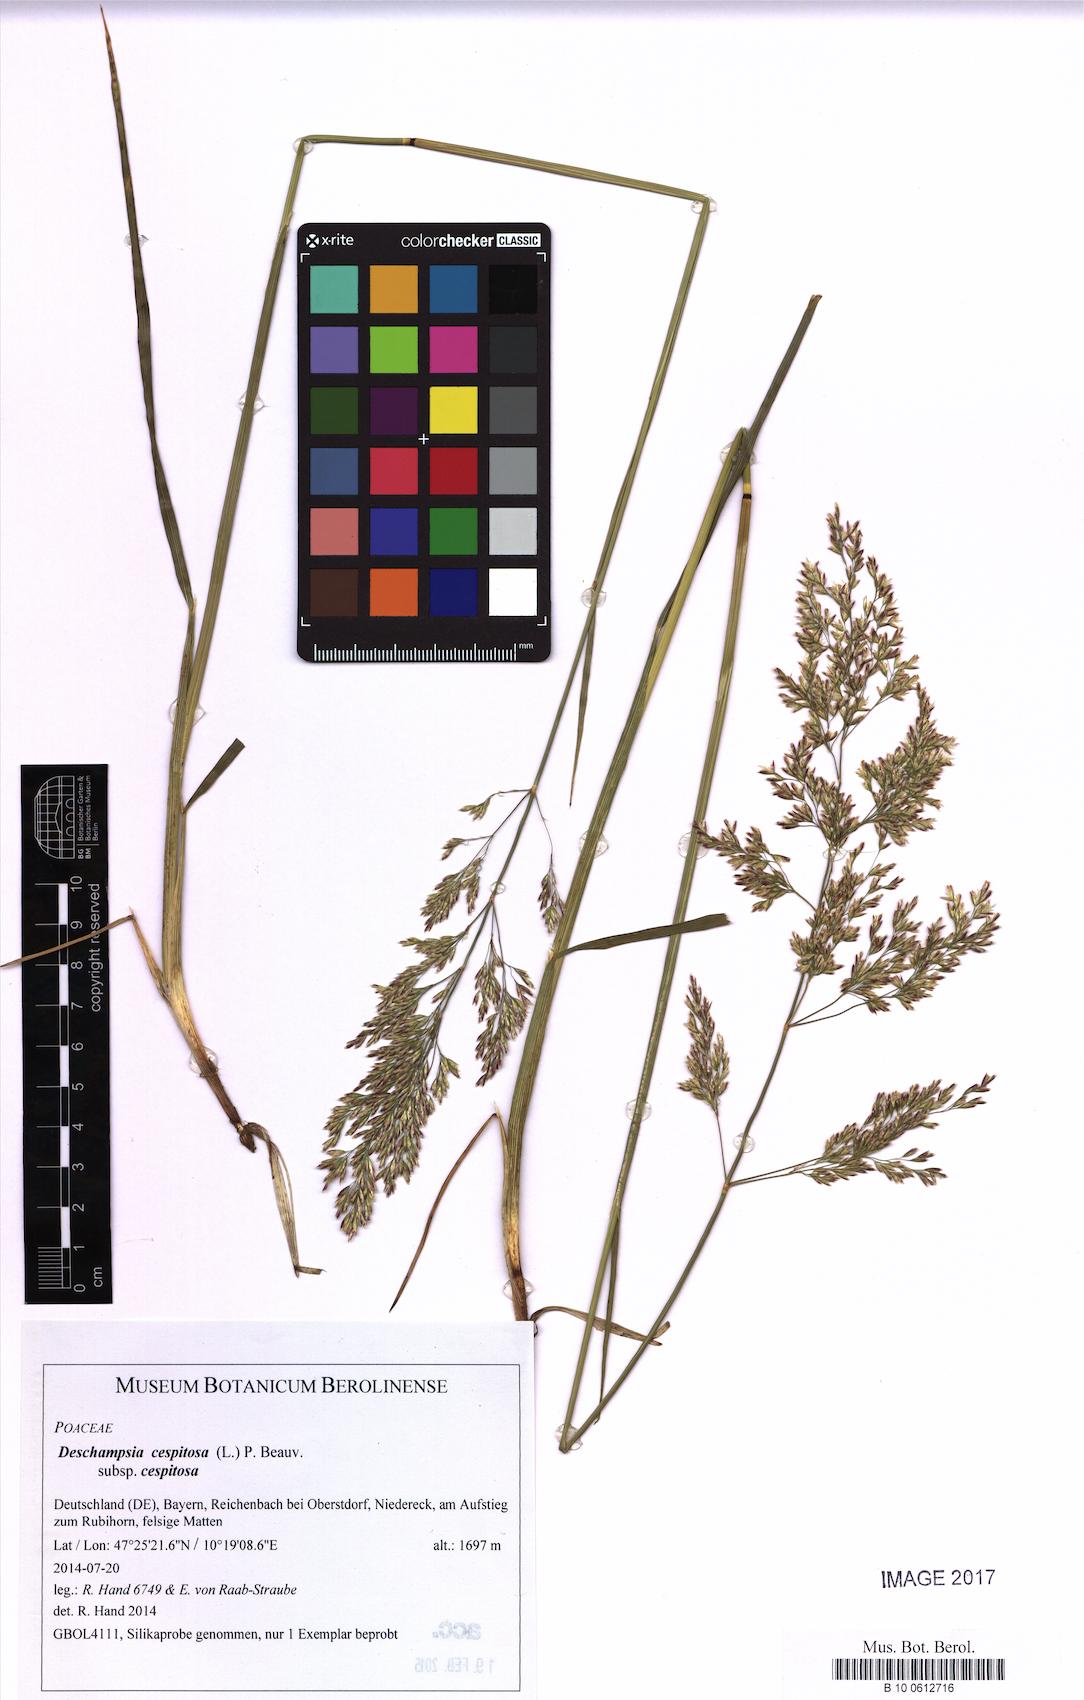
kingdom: Plantae
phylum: Tracheophyta
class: Liliopsida
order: Poales
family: Poaceae
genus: Deschampsia
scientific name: Deschampsia cespitosa
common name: Tufted hair-grass
